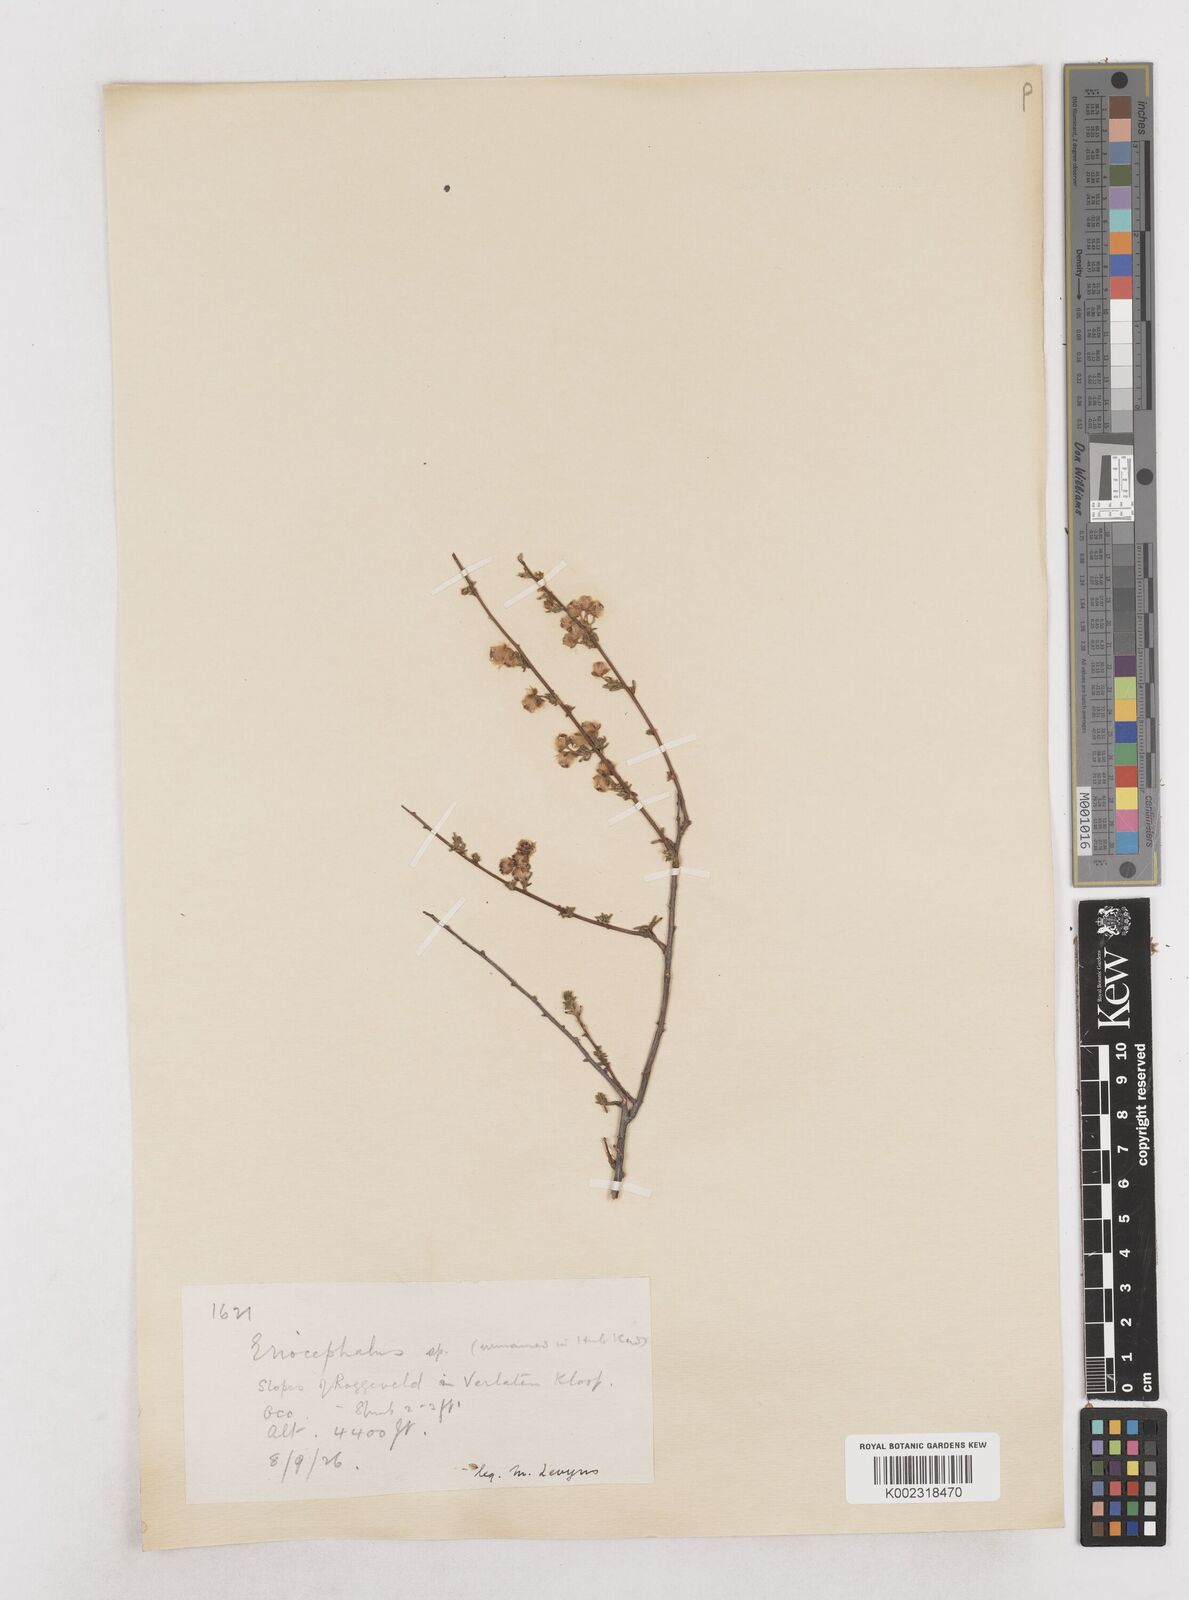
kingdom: Plantae
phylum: Tracheophyta
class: Magnoliopsida
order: Asterales
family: Asteraceae
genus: Eriocephalus
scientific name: Eriocephalus
